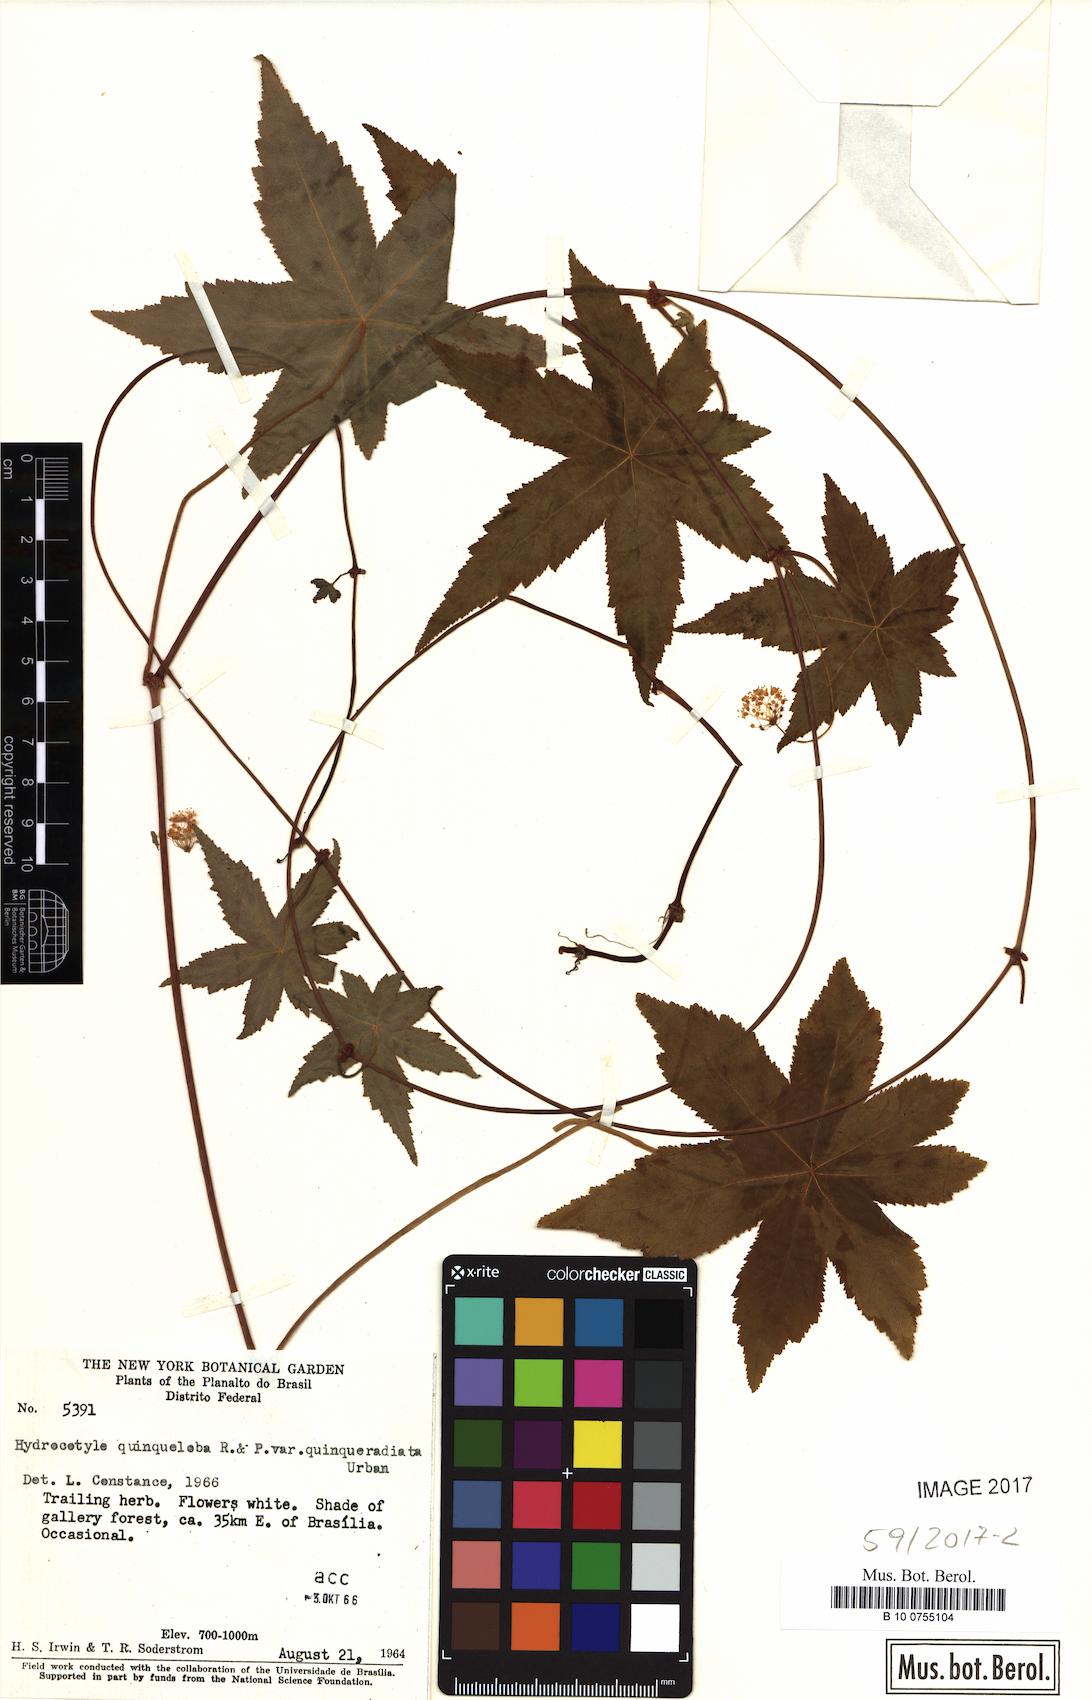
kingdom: Plantae
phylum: Tracheophyta
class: Magnoliopsida
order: Apiales
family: Araliaceae
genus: Hydrocotyle
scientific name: Hydrocotyle quinqueradiata
